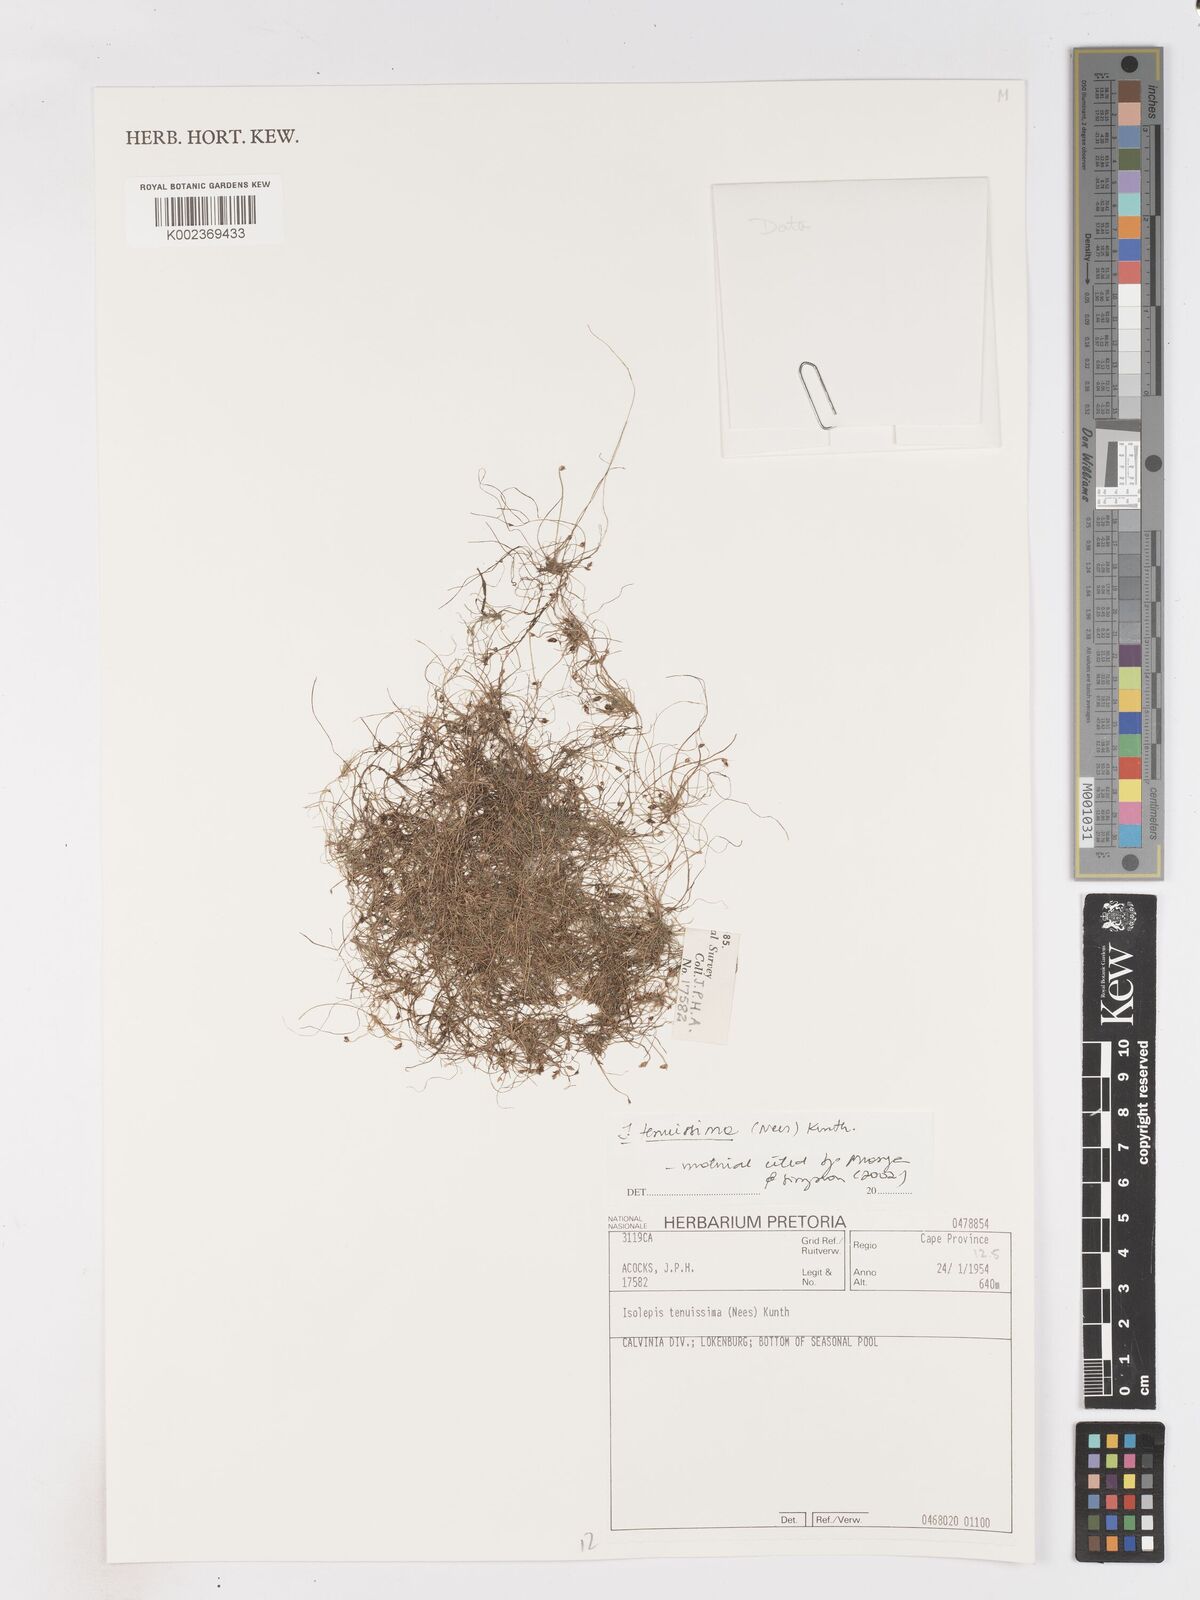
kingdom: Plantae
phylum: Tracheophyta
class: Liliopsida
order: Poales
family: Cyperaceae
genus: Isolepis
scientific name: Isolepis tenuissima
